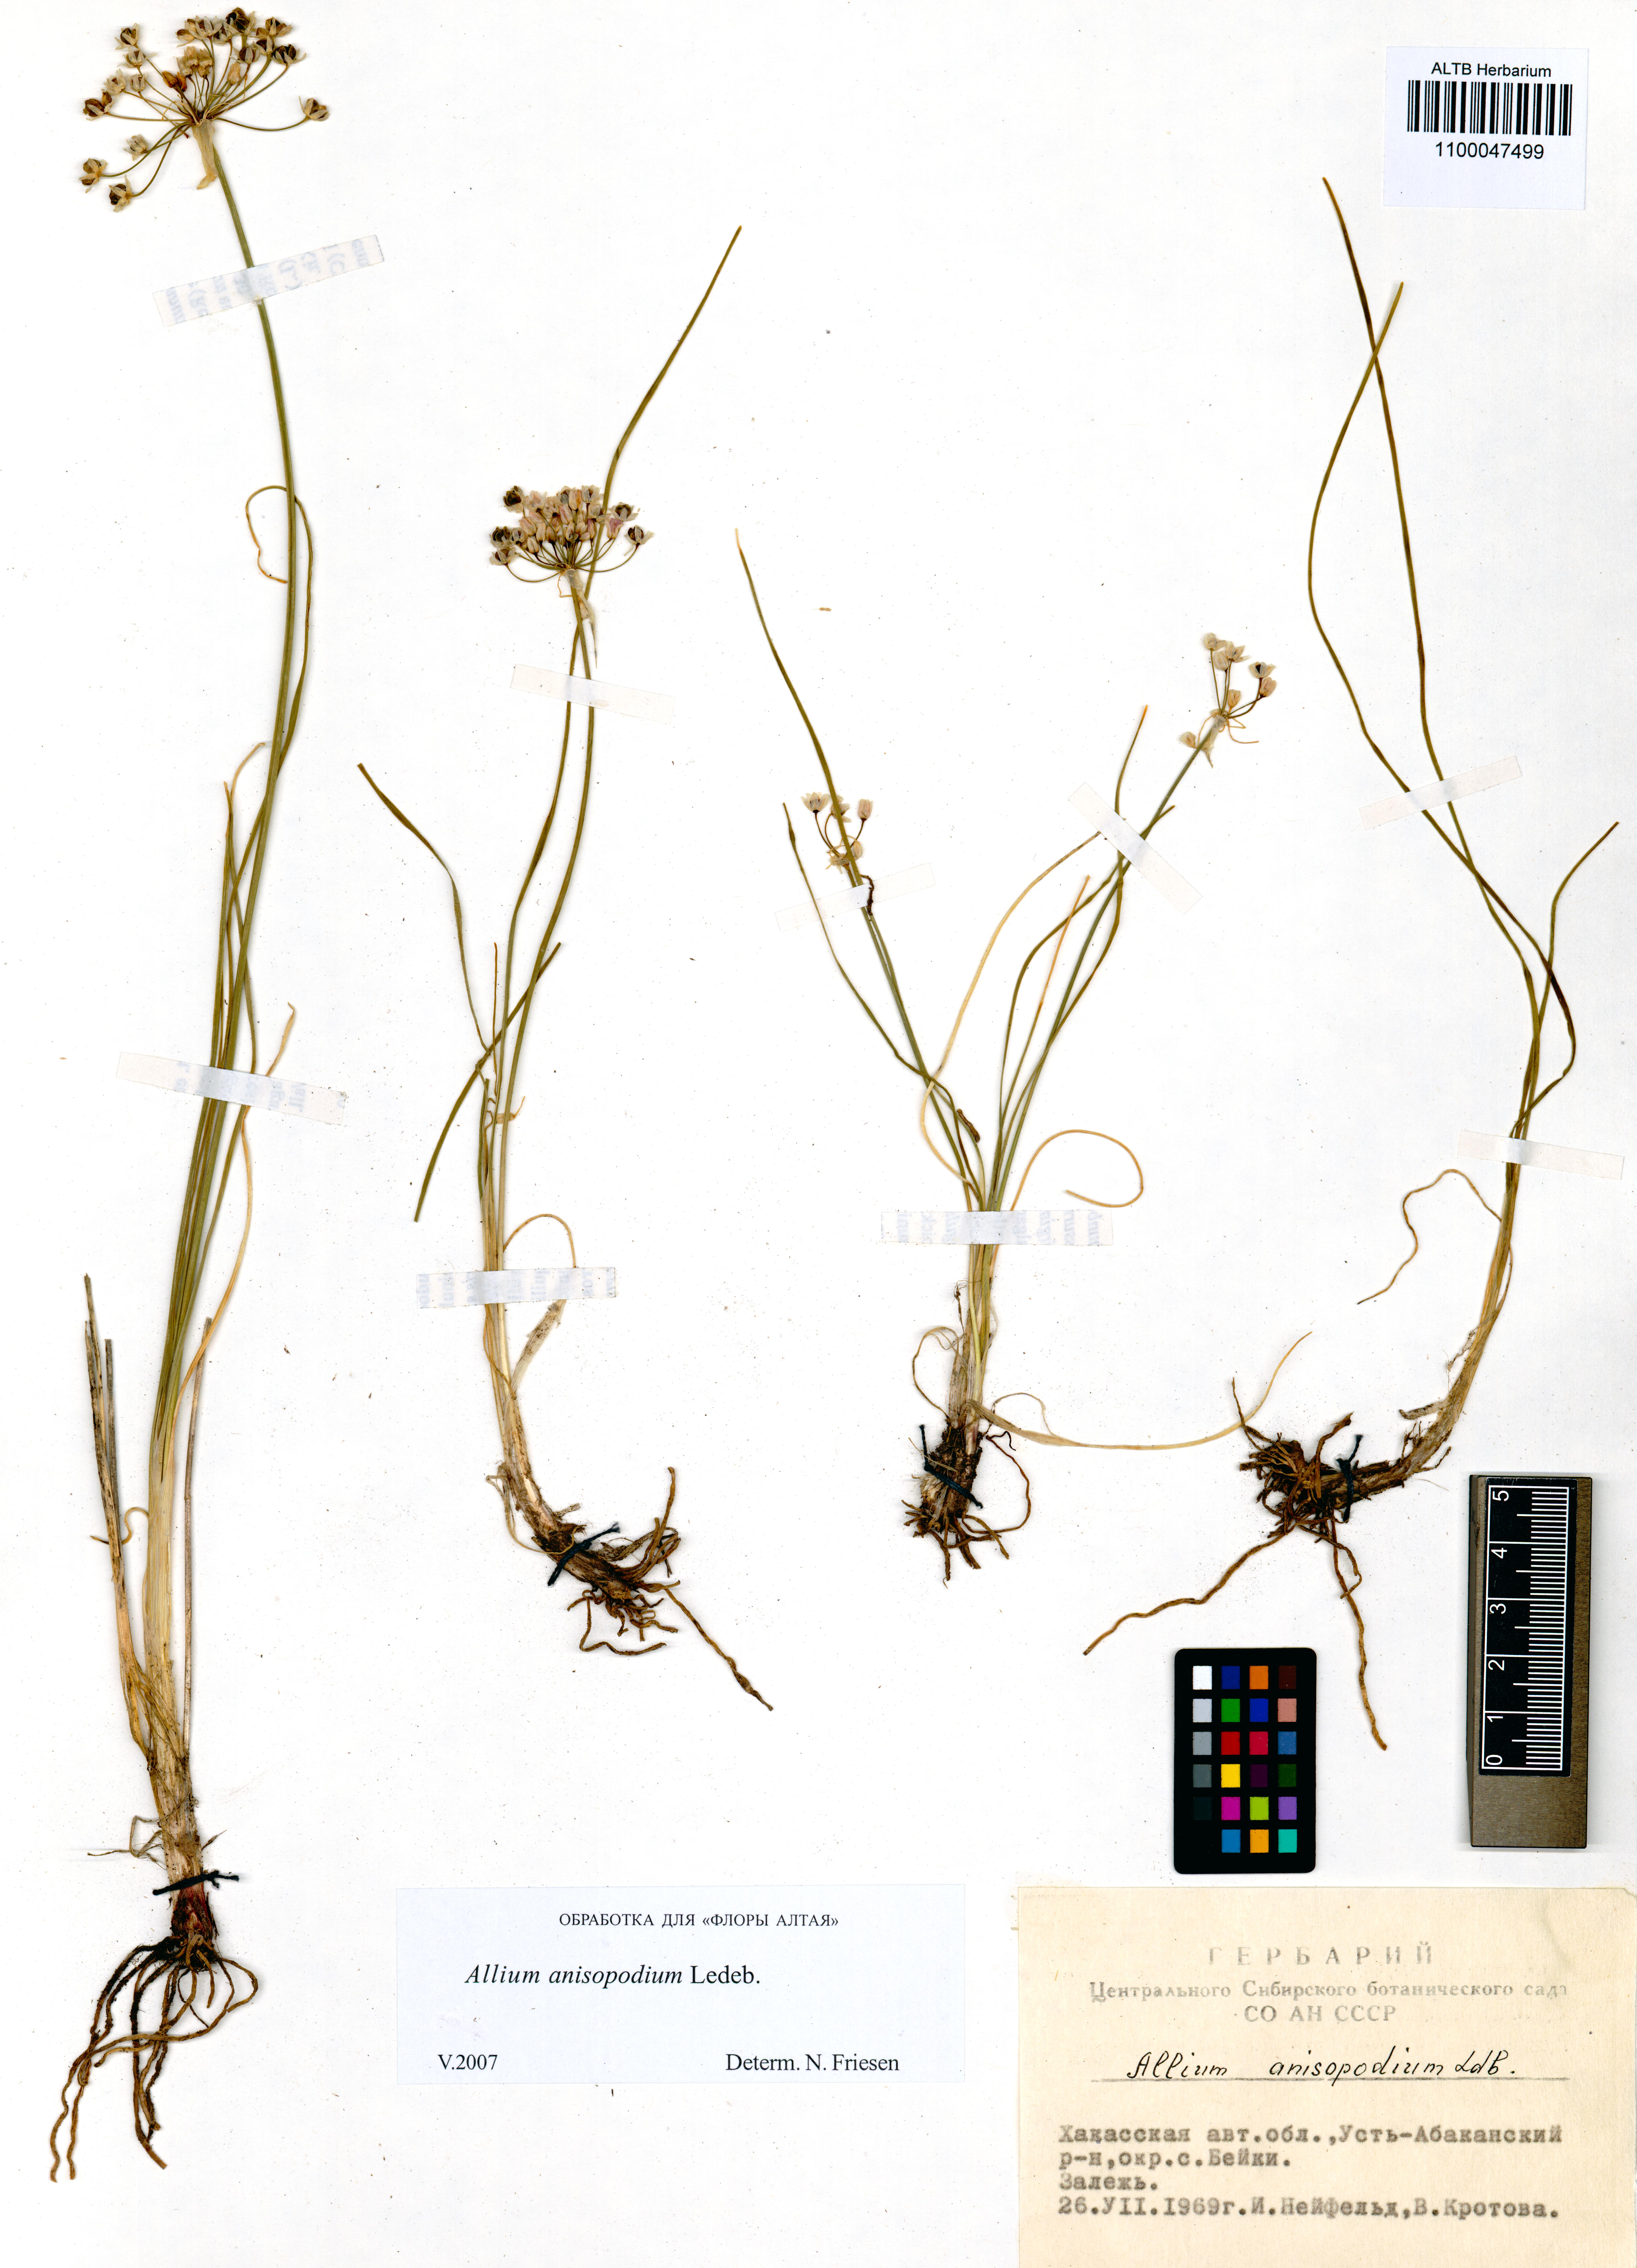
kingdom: Plantae
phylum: Tracheophyta
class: Liliopsida
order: Asparagales
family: Amaryllidaceae
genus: Allium
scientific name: Allium anisopodium
